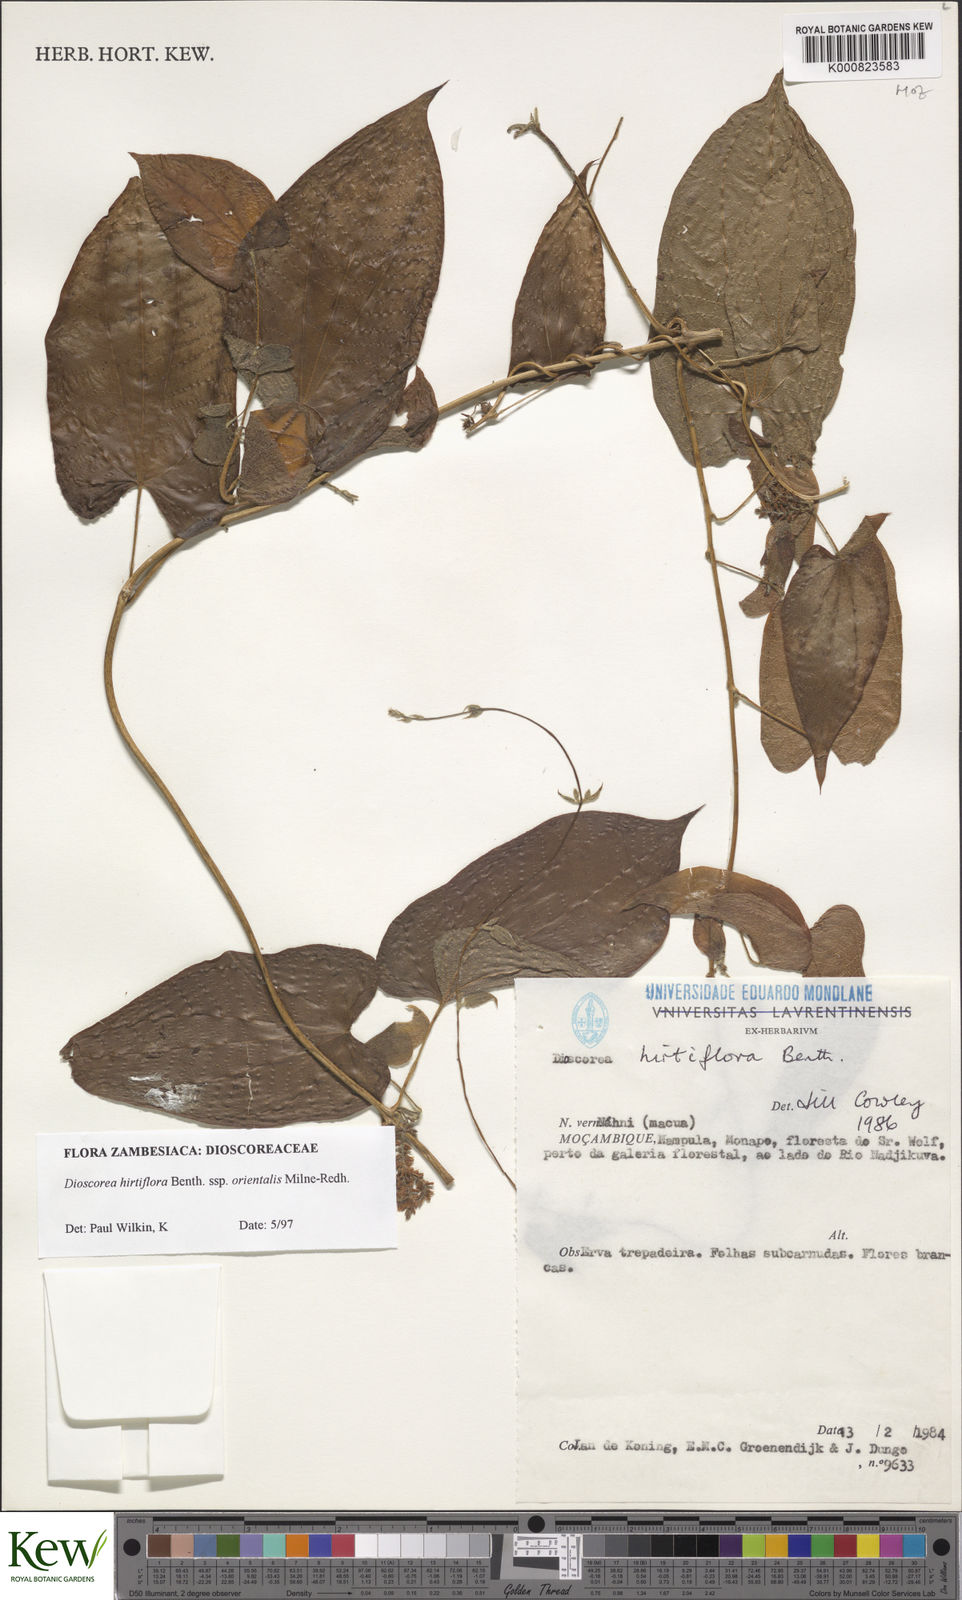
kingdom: Plantae
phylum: Tracheophyta
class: Liliopsida
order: Dioscoreales
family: Dioscoreaceae
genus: Dioscorea
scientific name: Dioscorea hirtiflora
